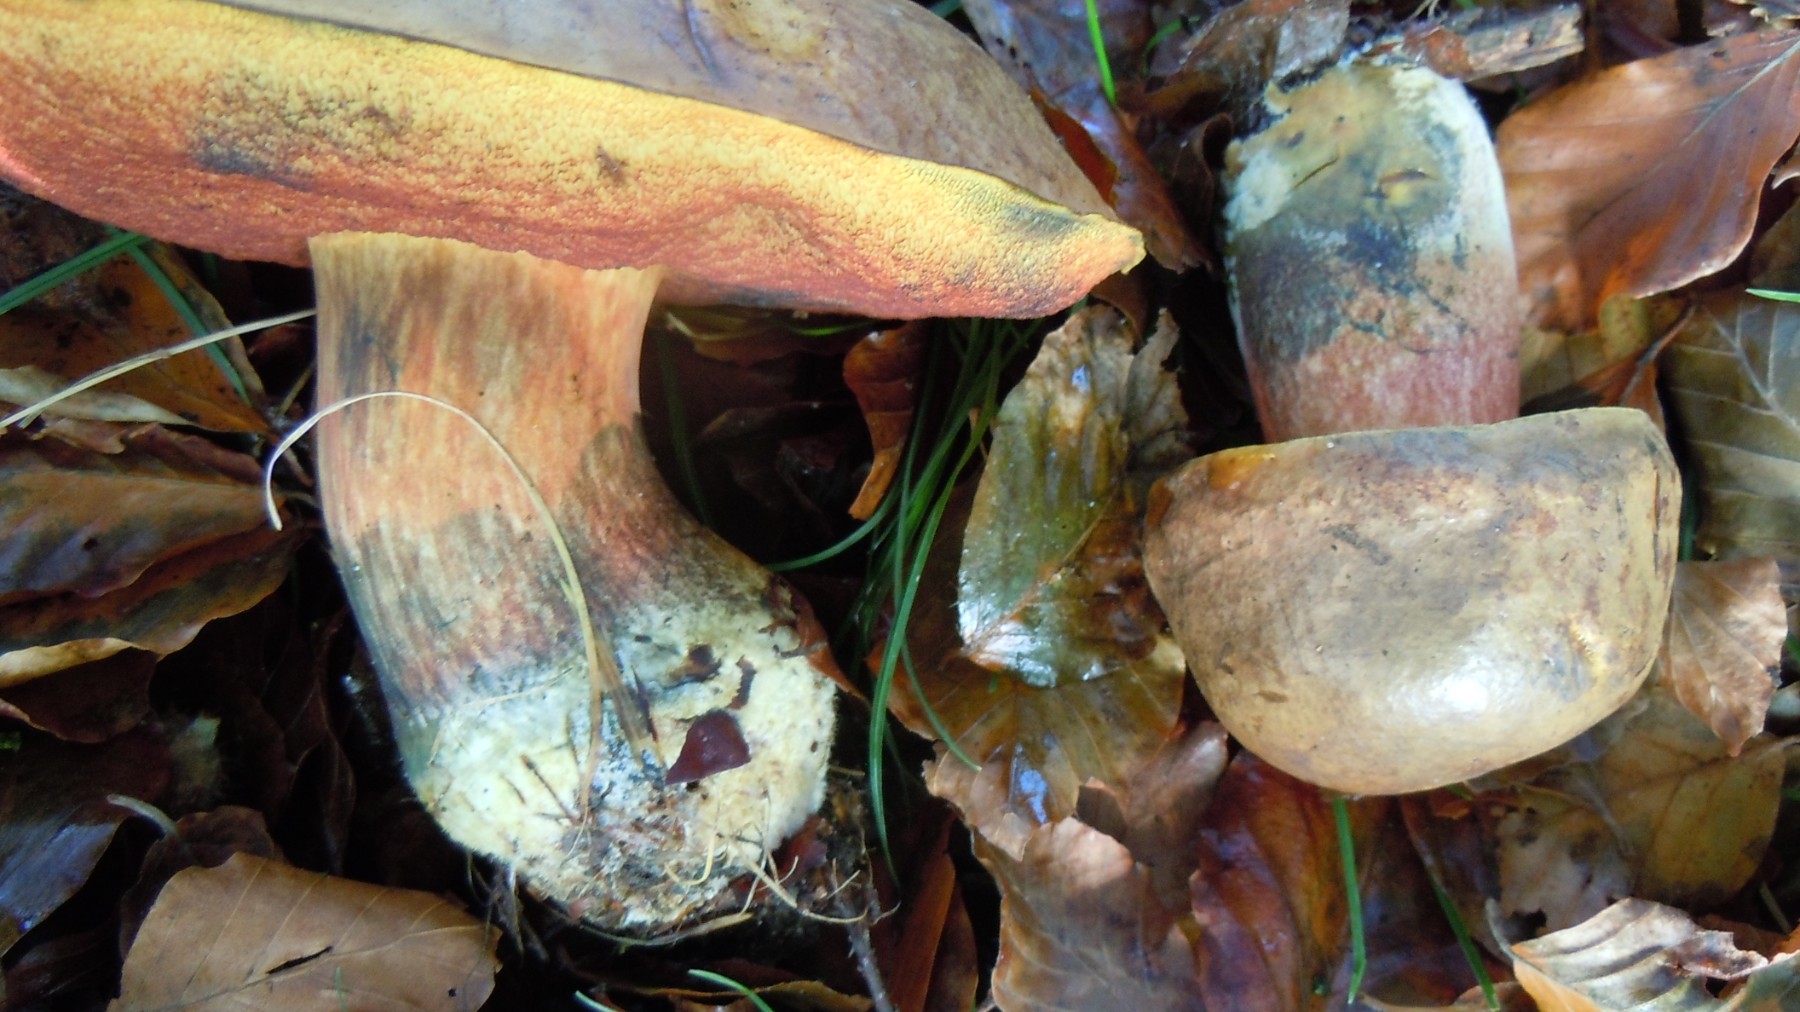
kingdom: Fungi
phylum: Basidiomycota
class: Agaricomycetes
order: Boletales
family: Boletaceae
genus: Neoboletus
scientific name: Neoboletus erythropus
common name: punktstokket indigorørhat
